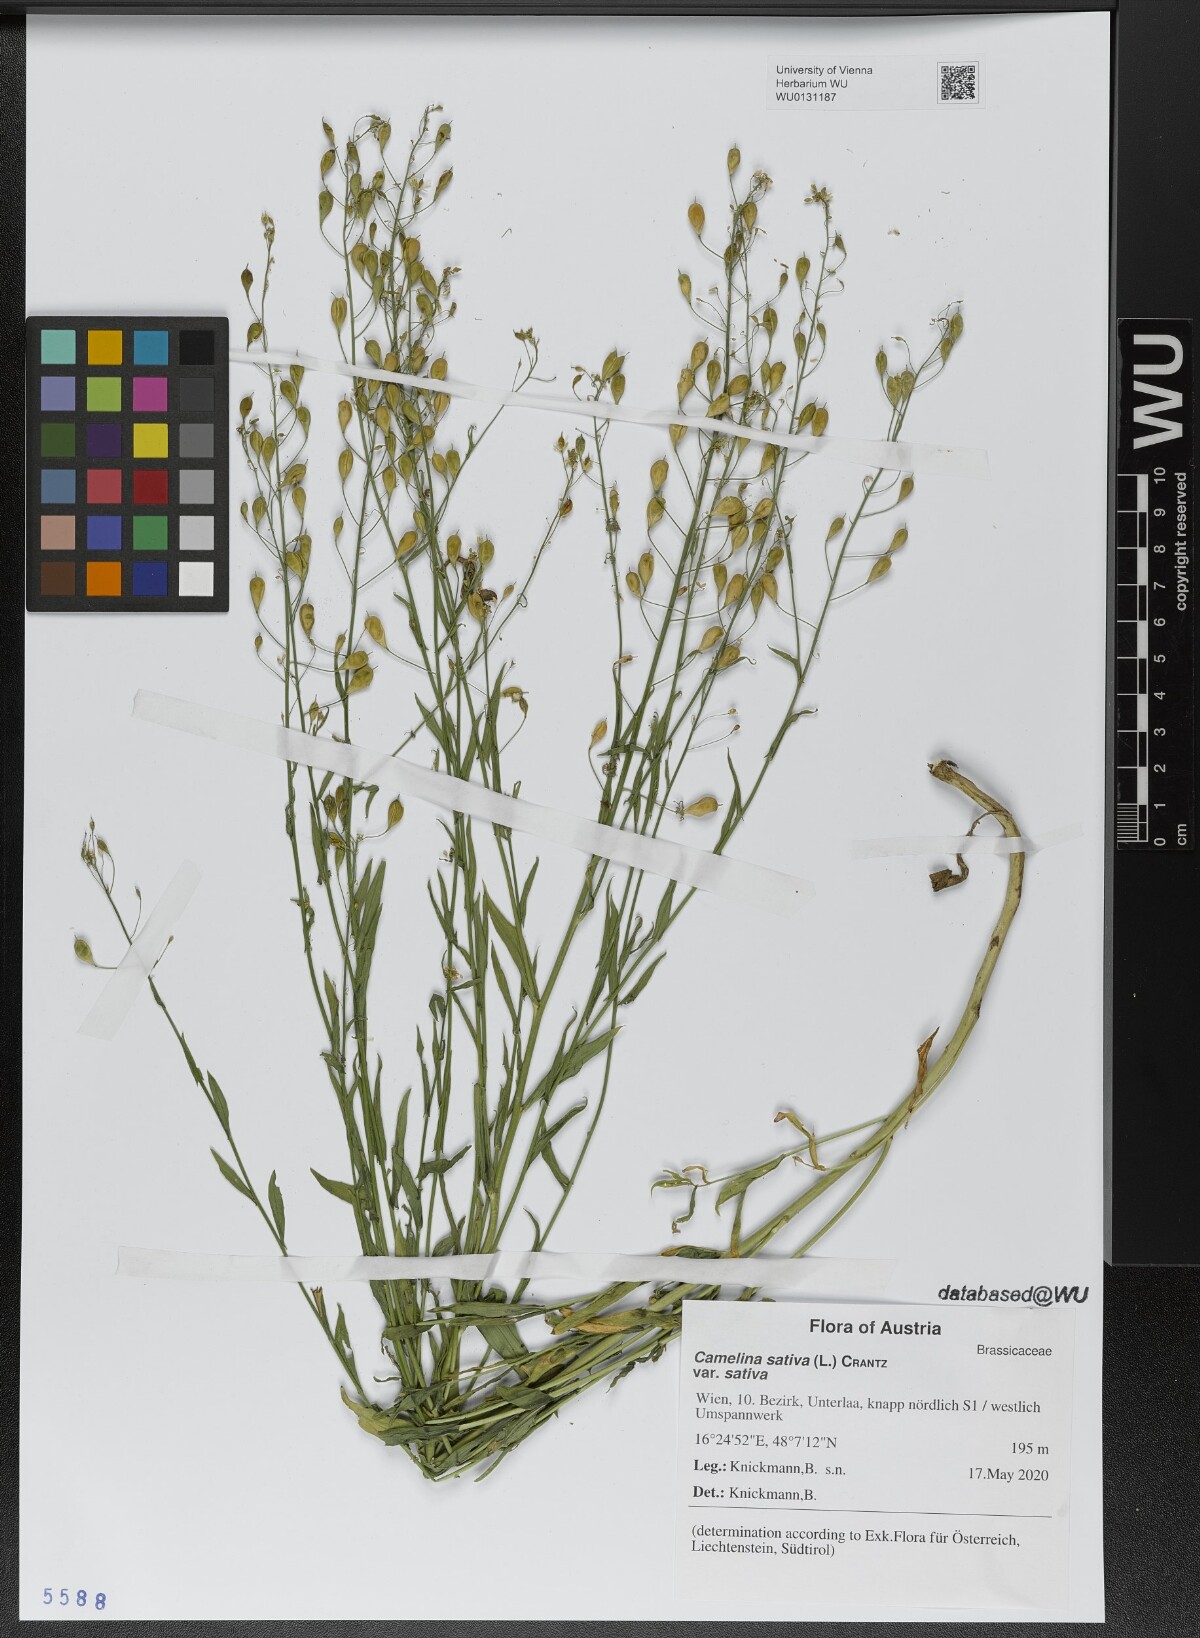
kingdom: Plantae
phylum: Tracheophyta
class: Magnoliopsida
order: Brassicales
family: Brassicaceae
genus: Camelina
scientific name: Camelina sativa
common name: Gold-of-pleasure
